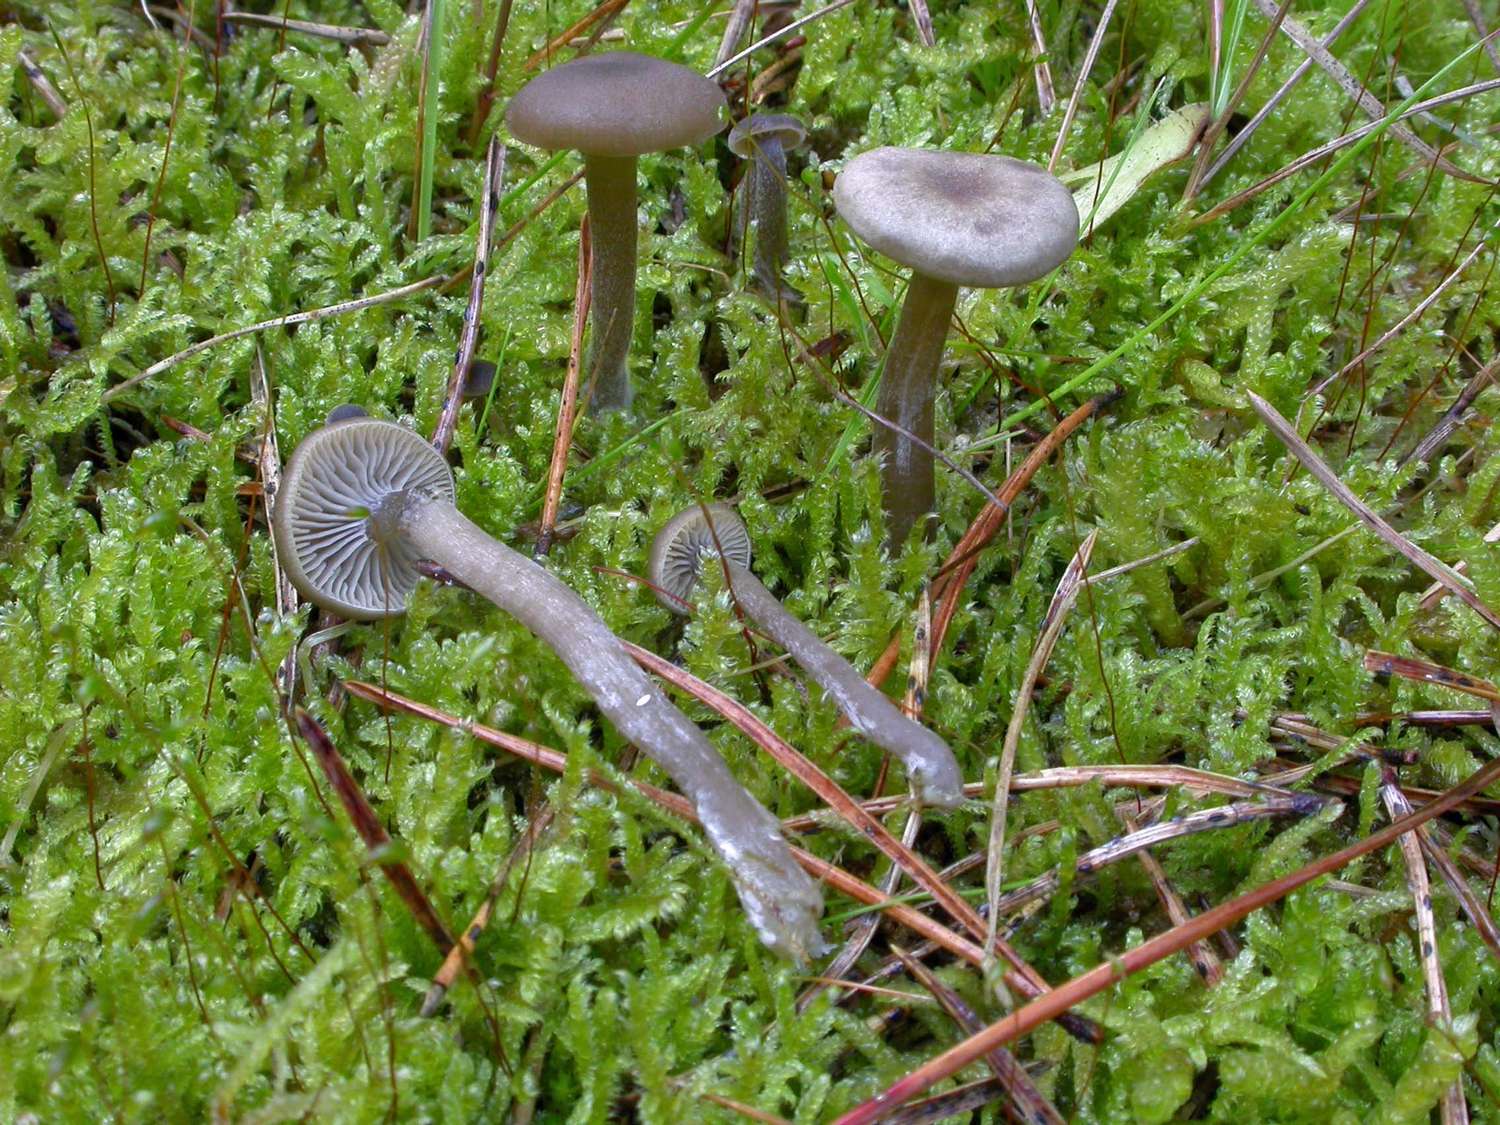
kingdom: Fungi
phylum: Basidiomycota
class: Agaricomycetes
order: Agaricales
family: Tricholomataceae
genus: Omphaliaster
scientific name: Omphaliaster asterosporus
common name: narrehat
